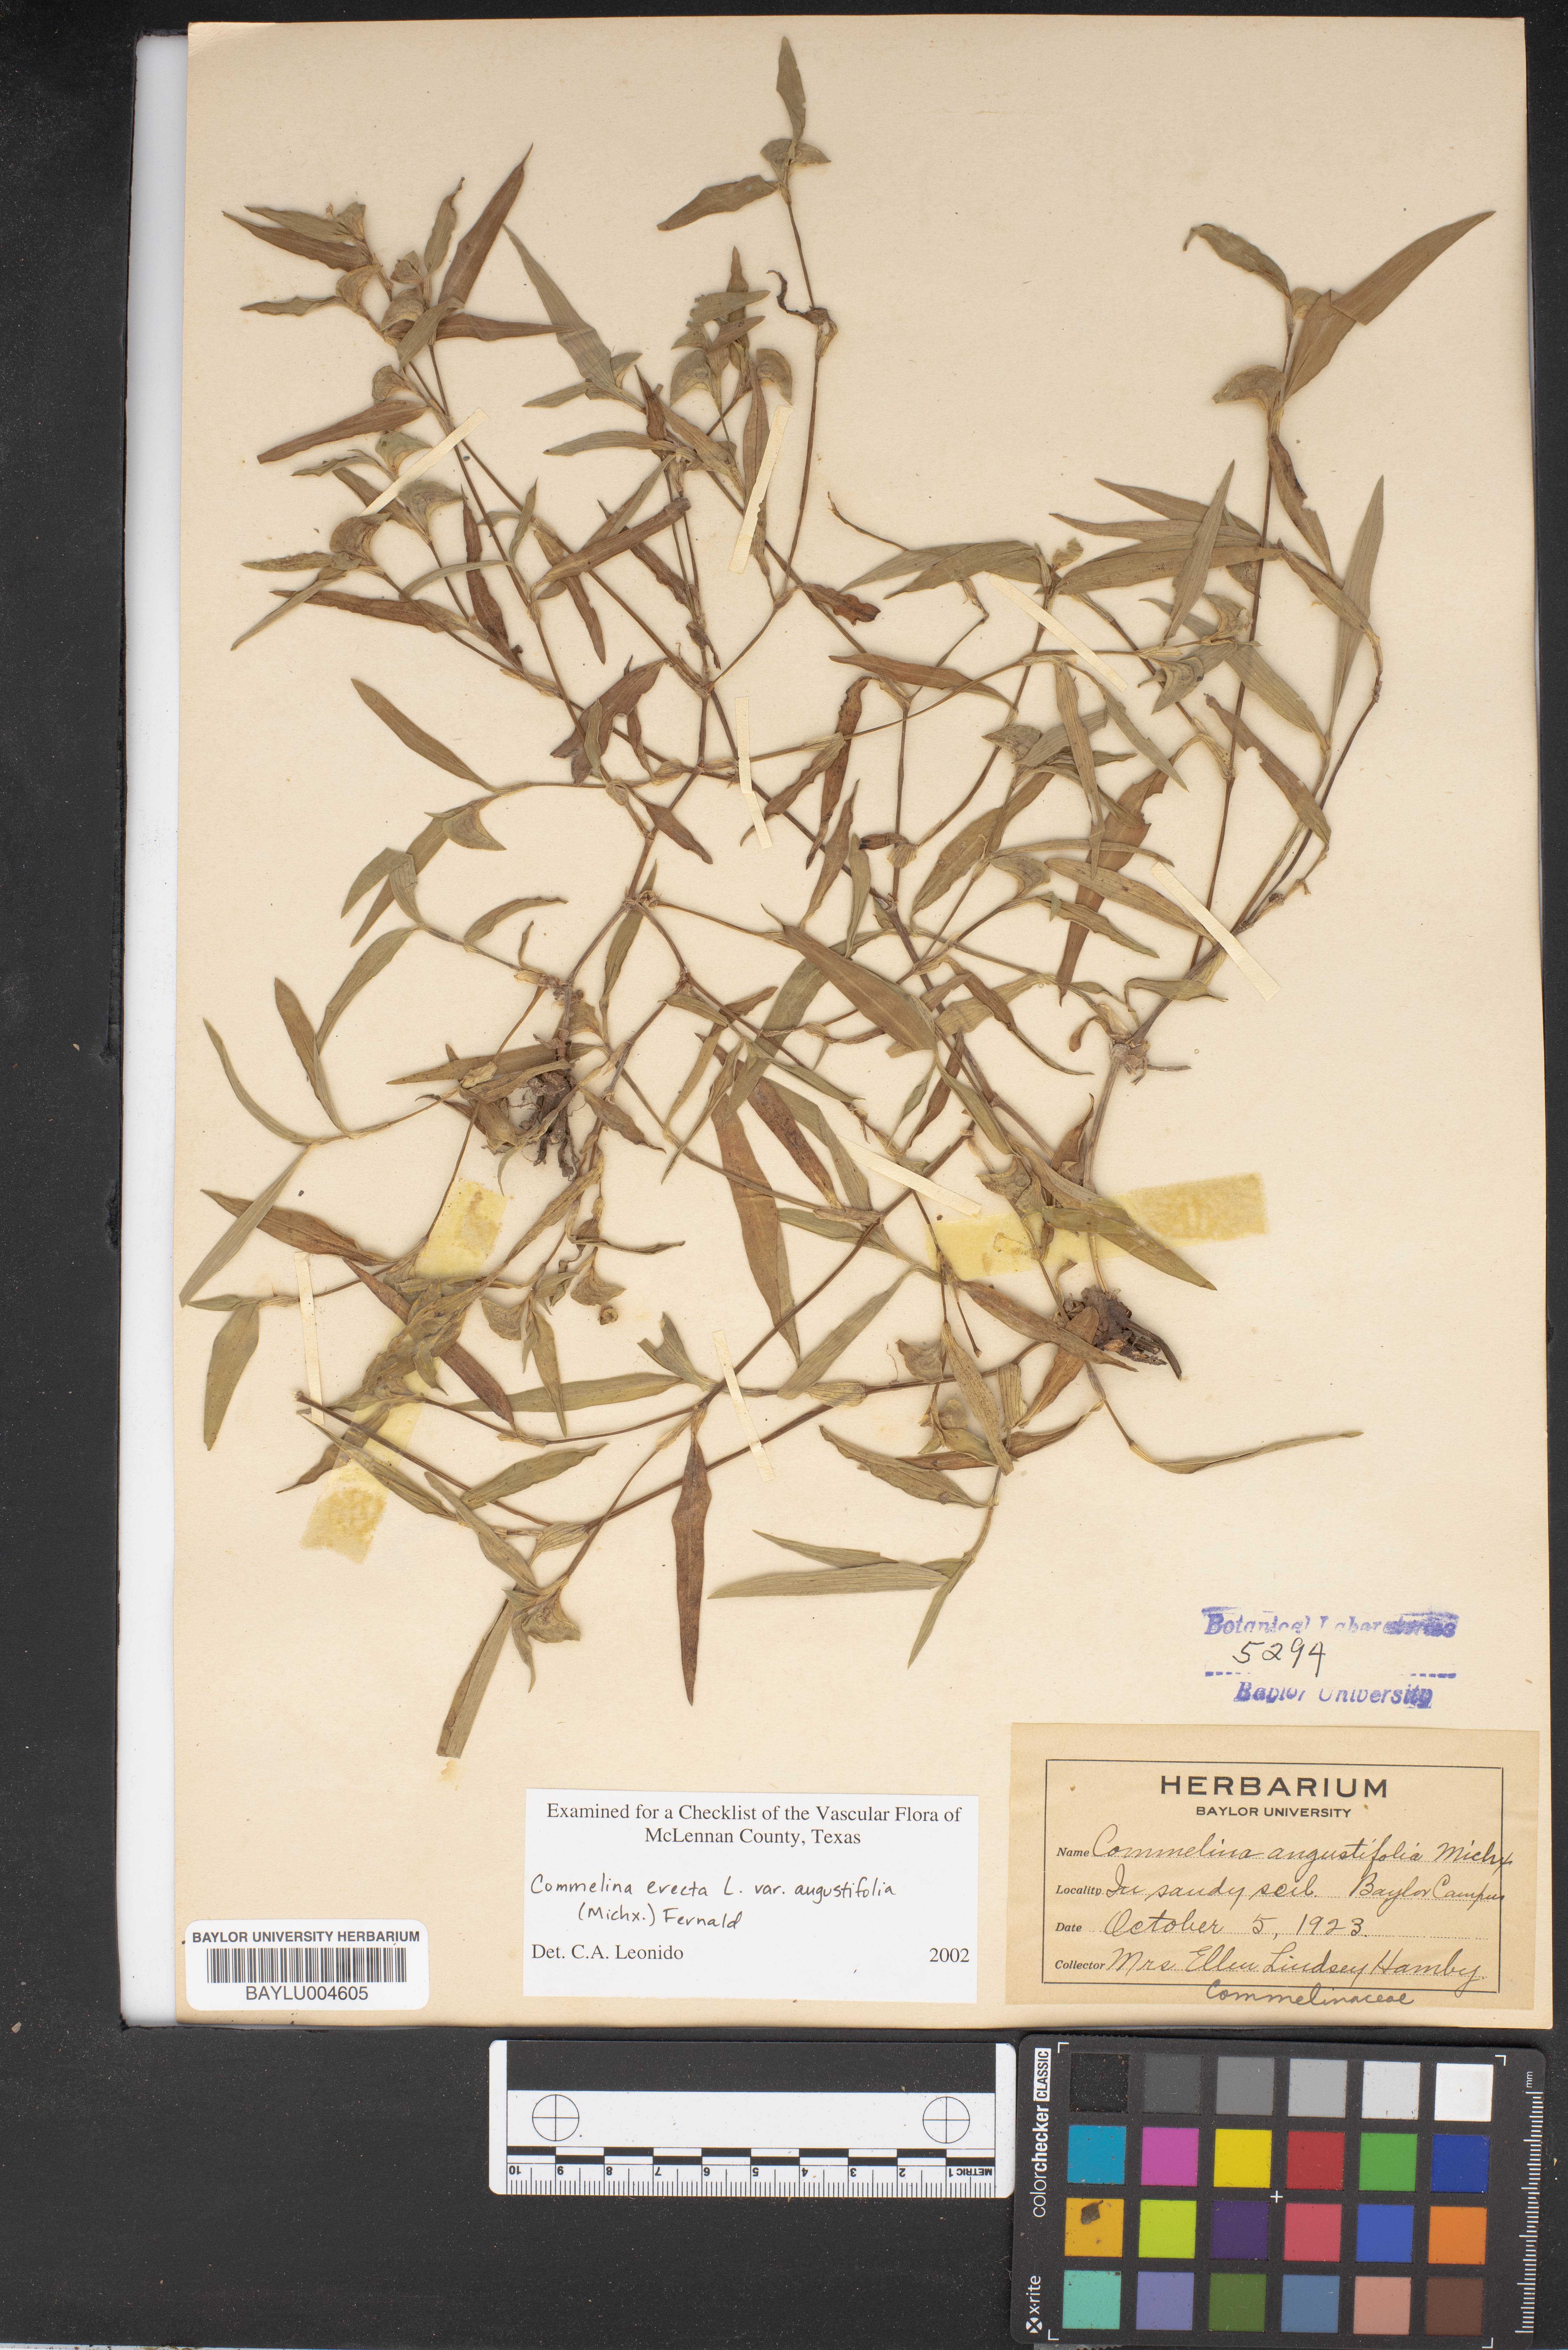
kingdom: Plantae
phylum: Tracheophyta
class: Liliopsida
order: Commelinales
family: Commelinaceae
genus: Commelina
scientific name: Commelina erecta
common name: Blousel blommetjie
